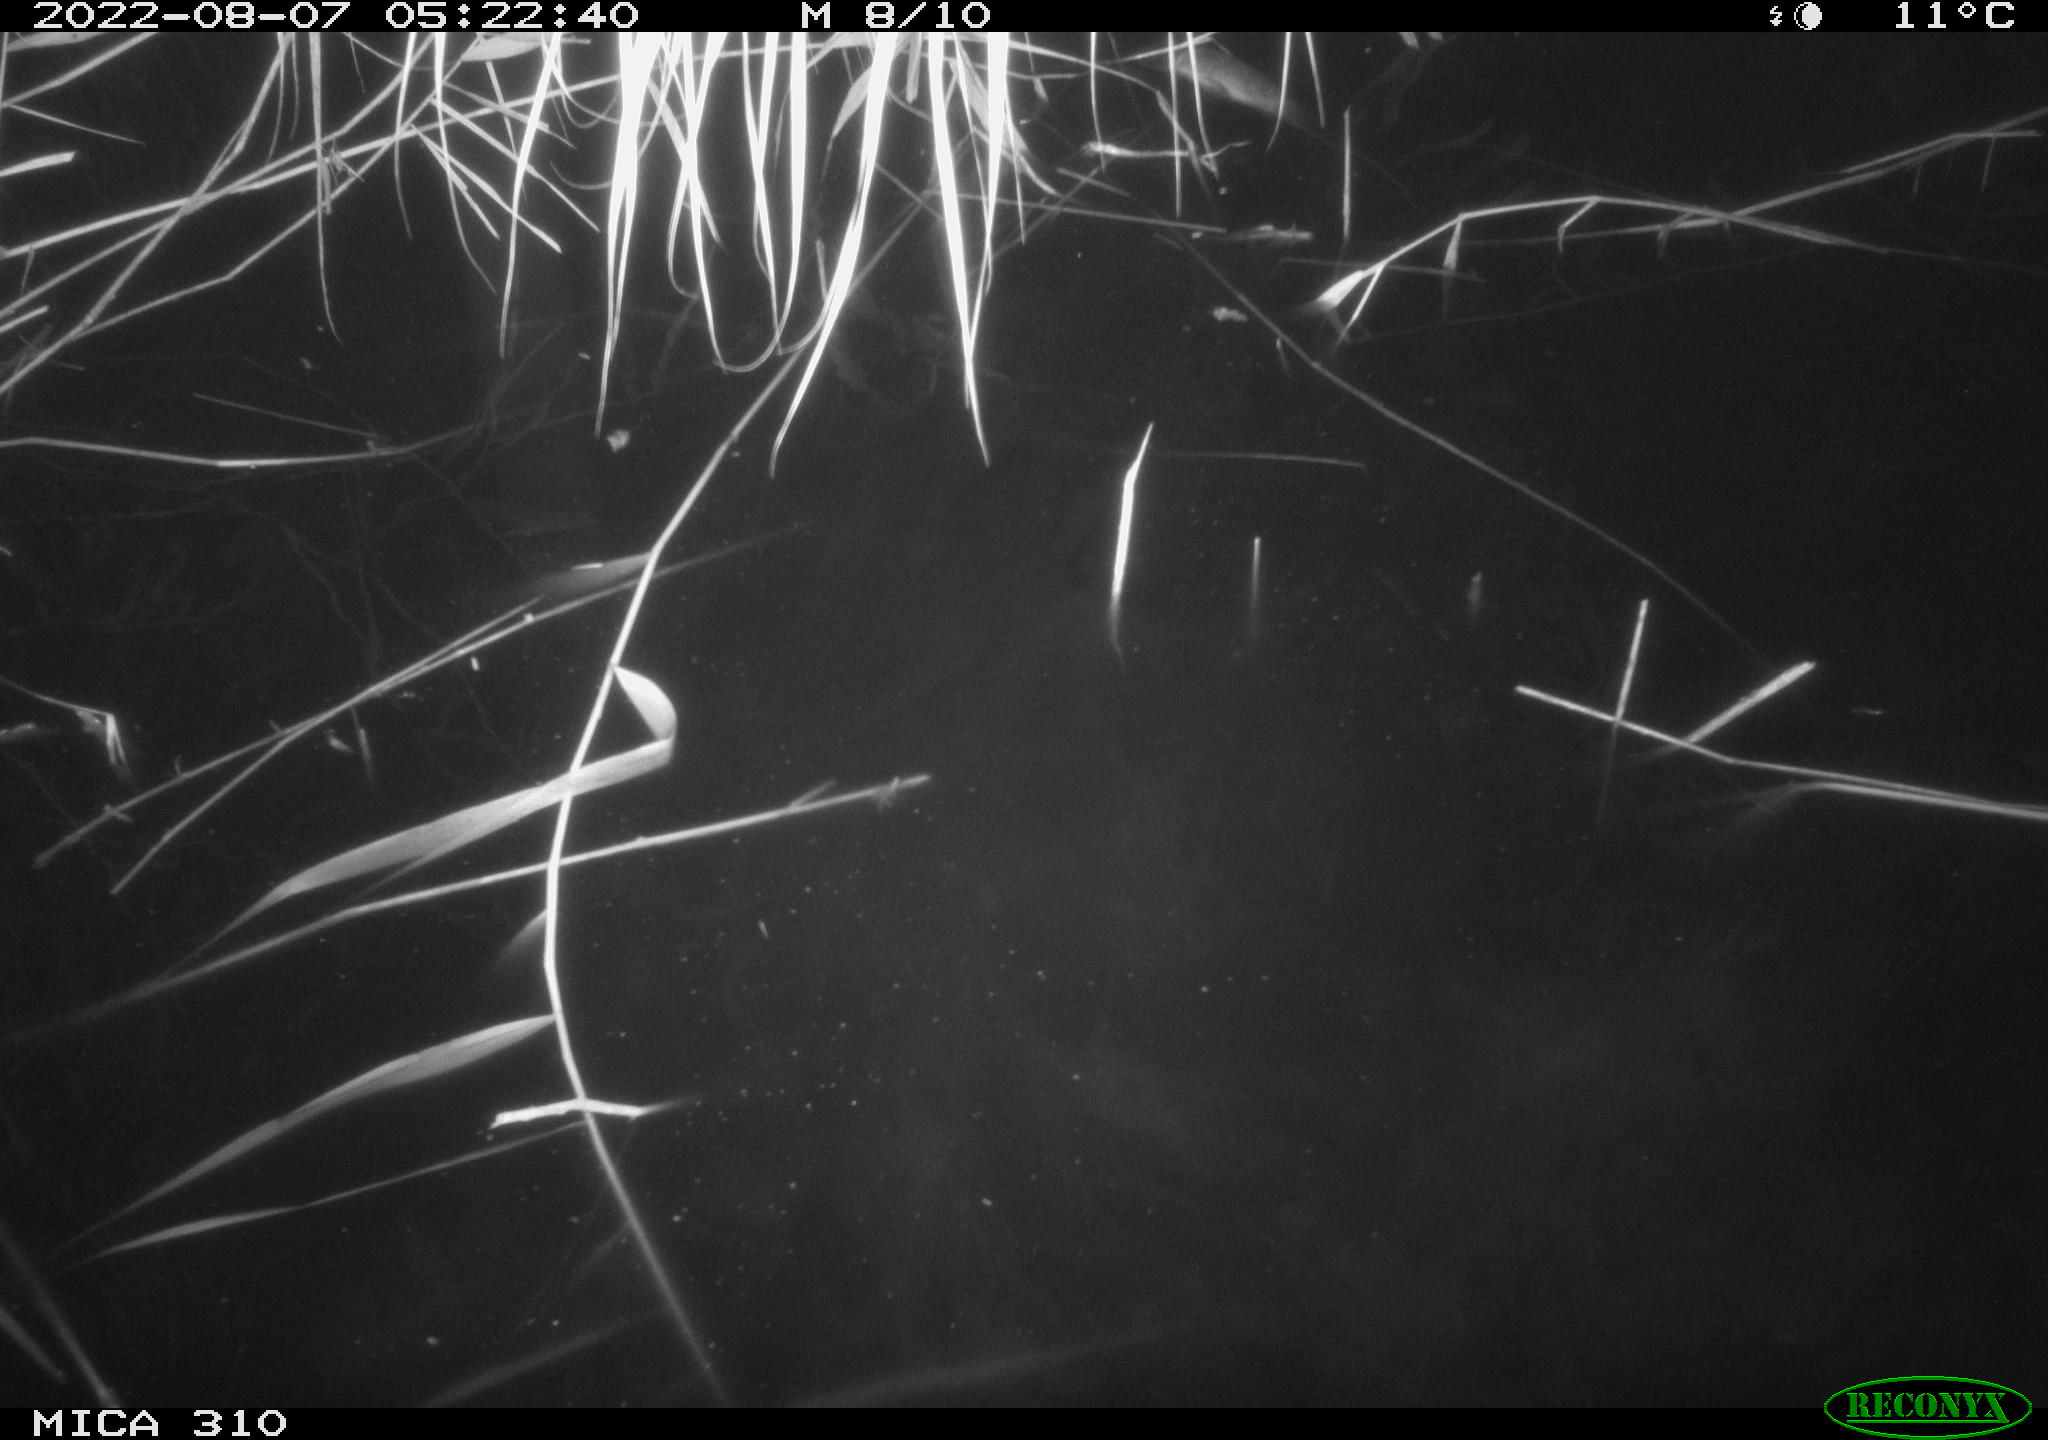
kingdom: Animalia
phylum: Chordata
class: Aves
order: Gruiformes
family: Rallidae
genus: Gallinula
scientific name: Gallinula chloropus
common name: Common moorhen
